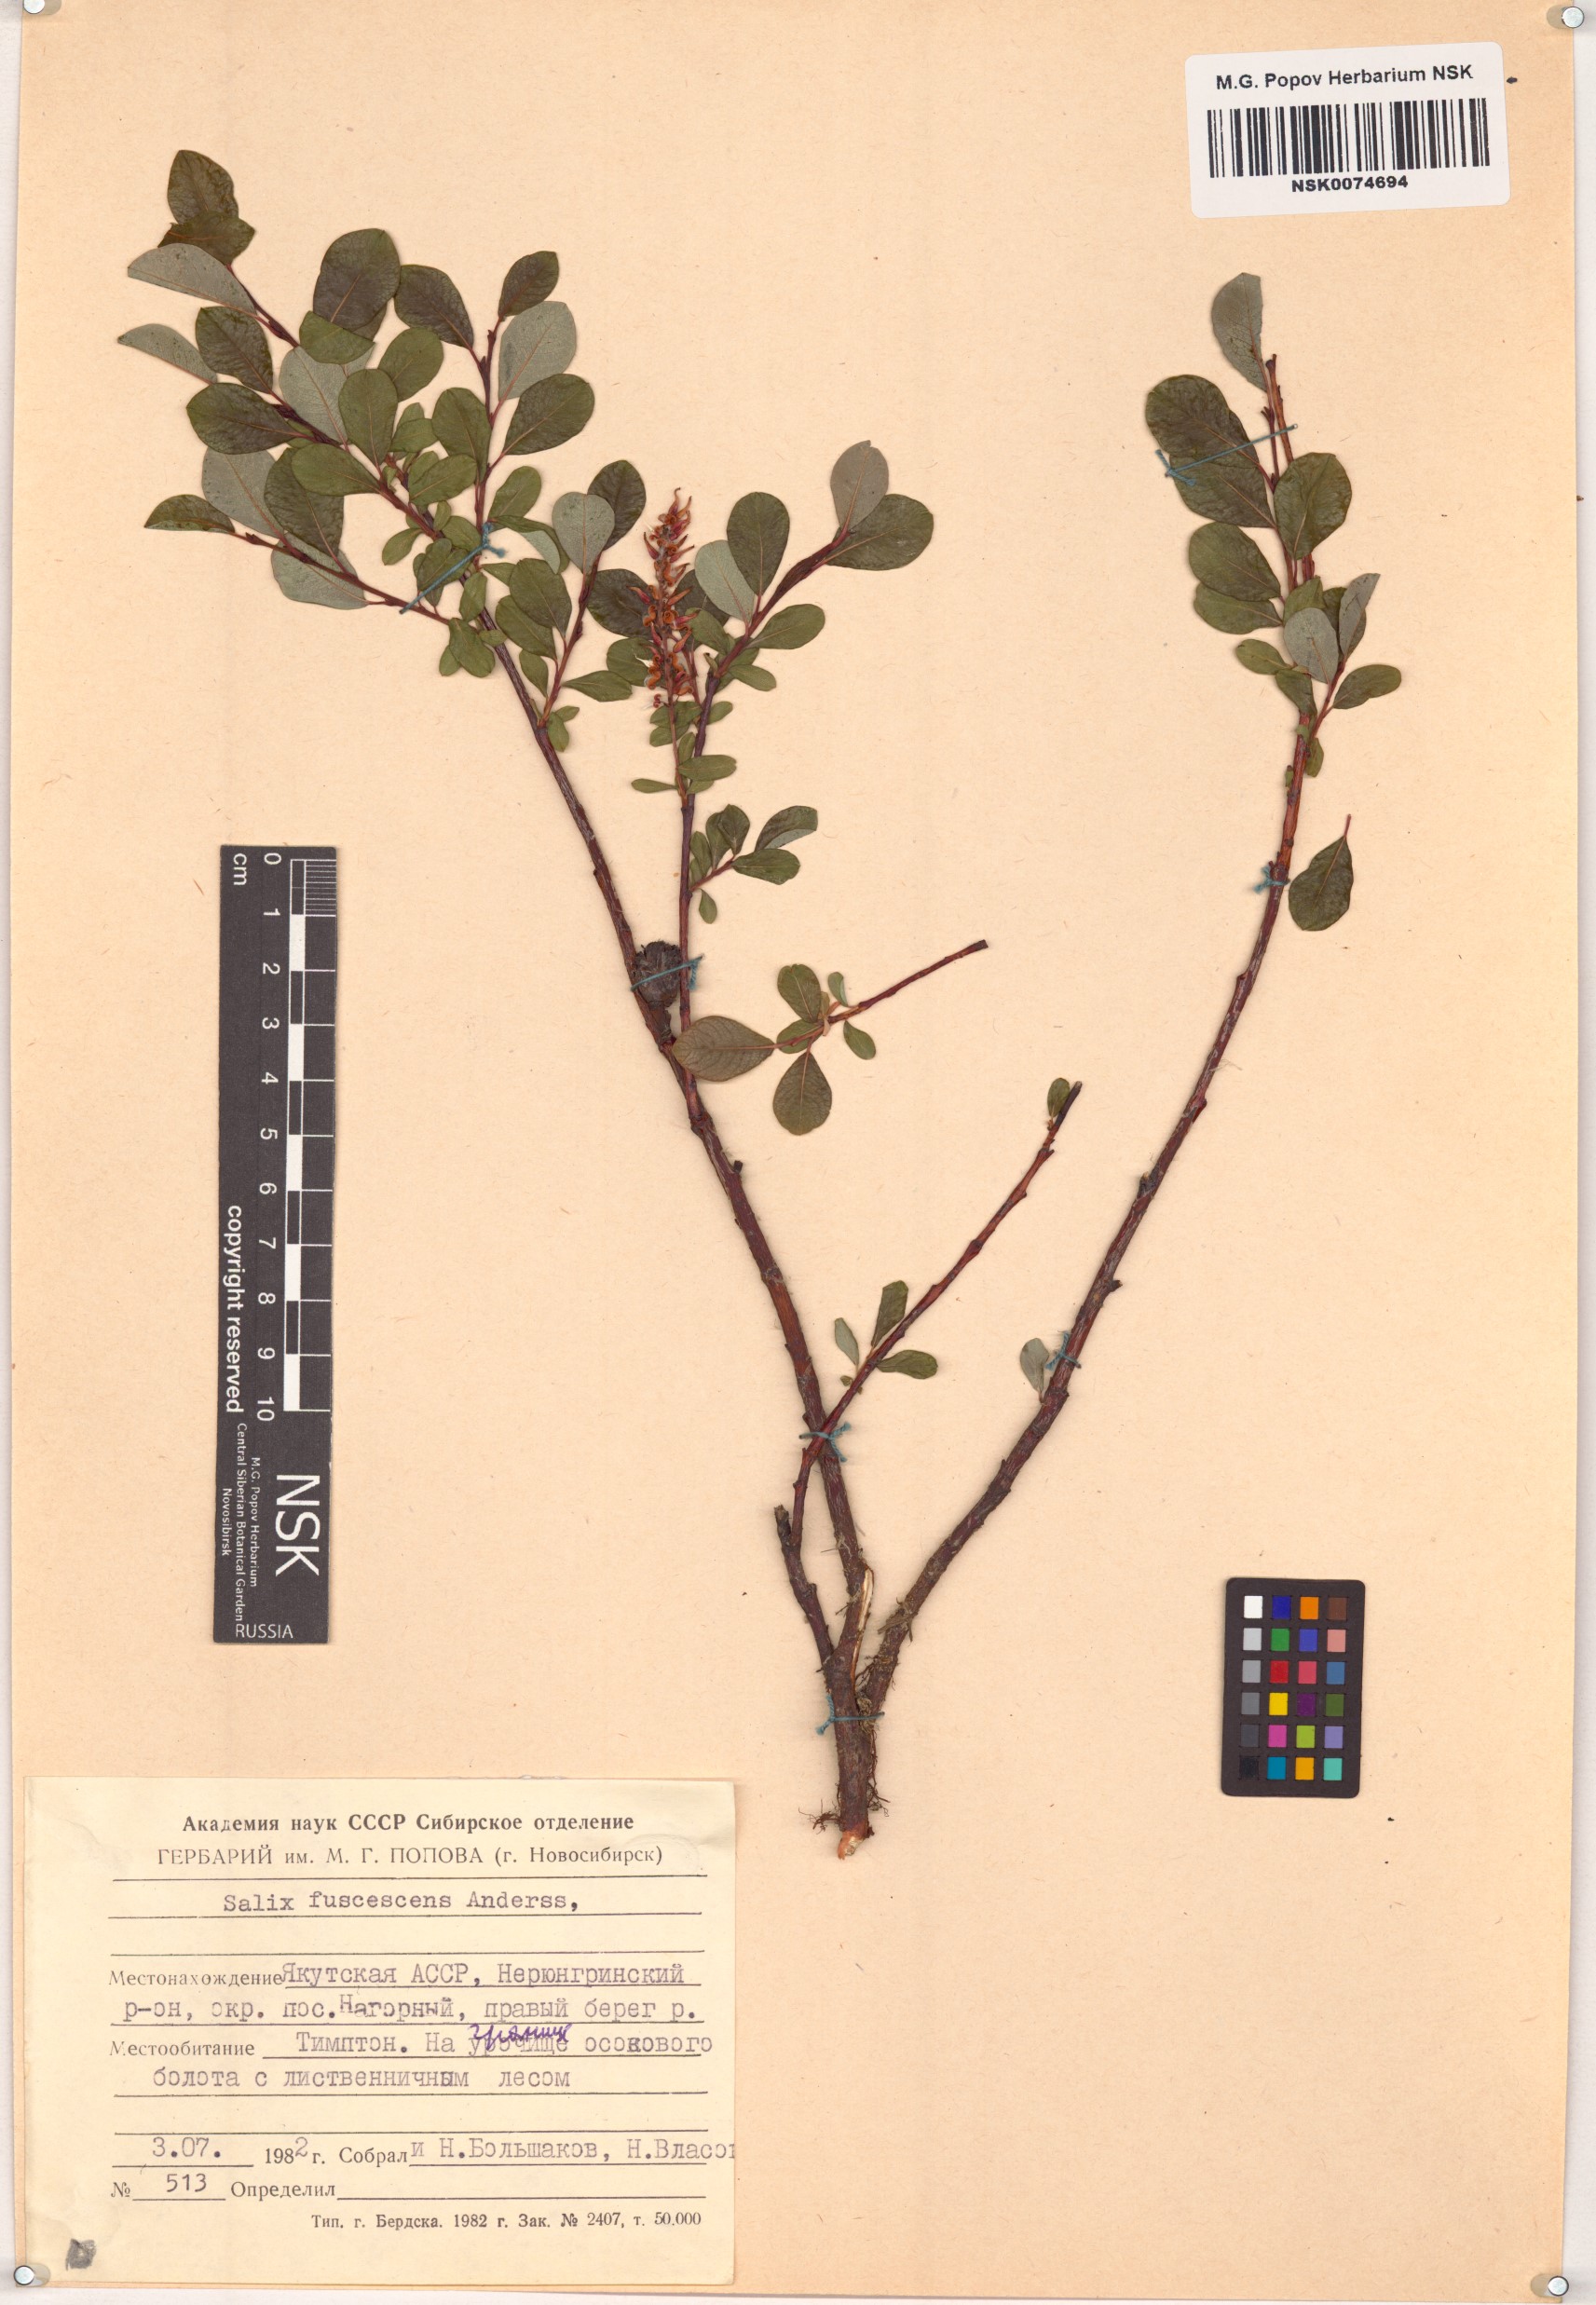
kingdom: Plantae
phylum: Tracheophyta
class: Magnoliopsida
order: Malpighiales
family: Salicaceae
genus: Salix
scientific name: Salix fuscescens
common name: Brownish willow
